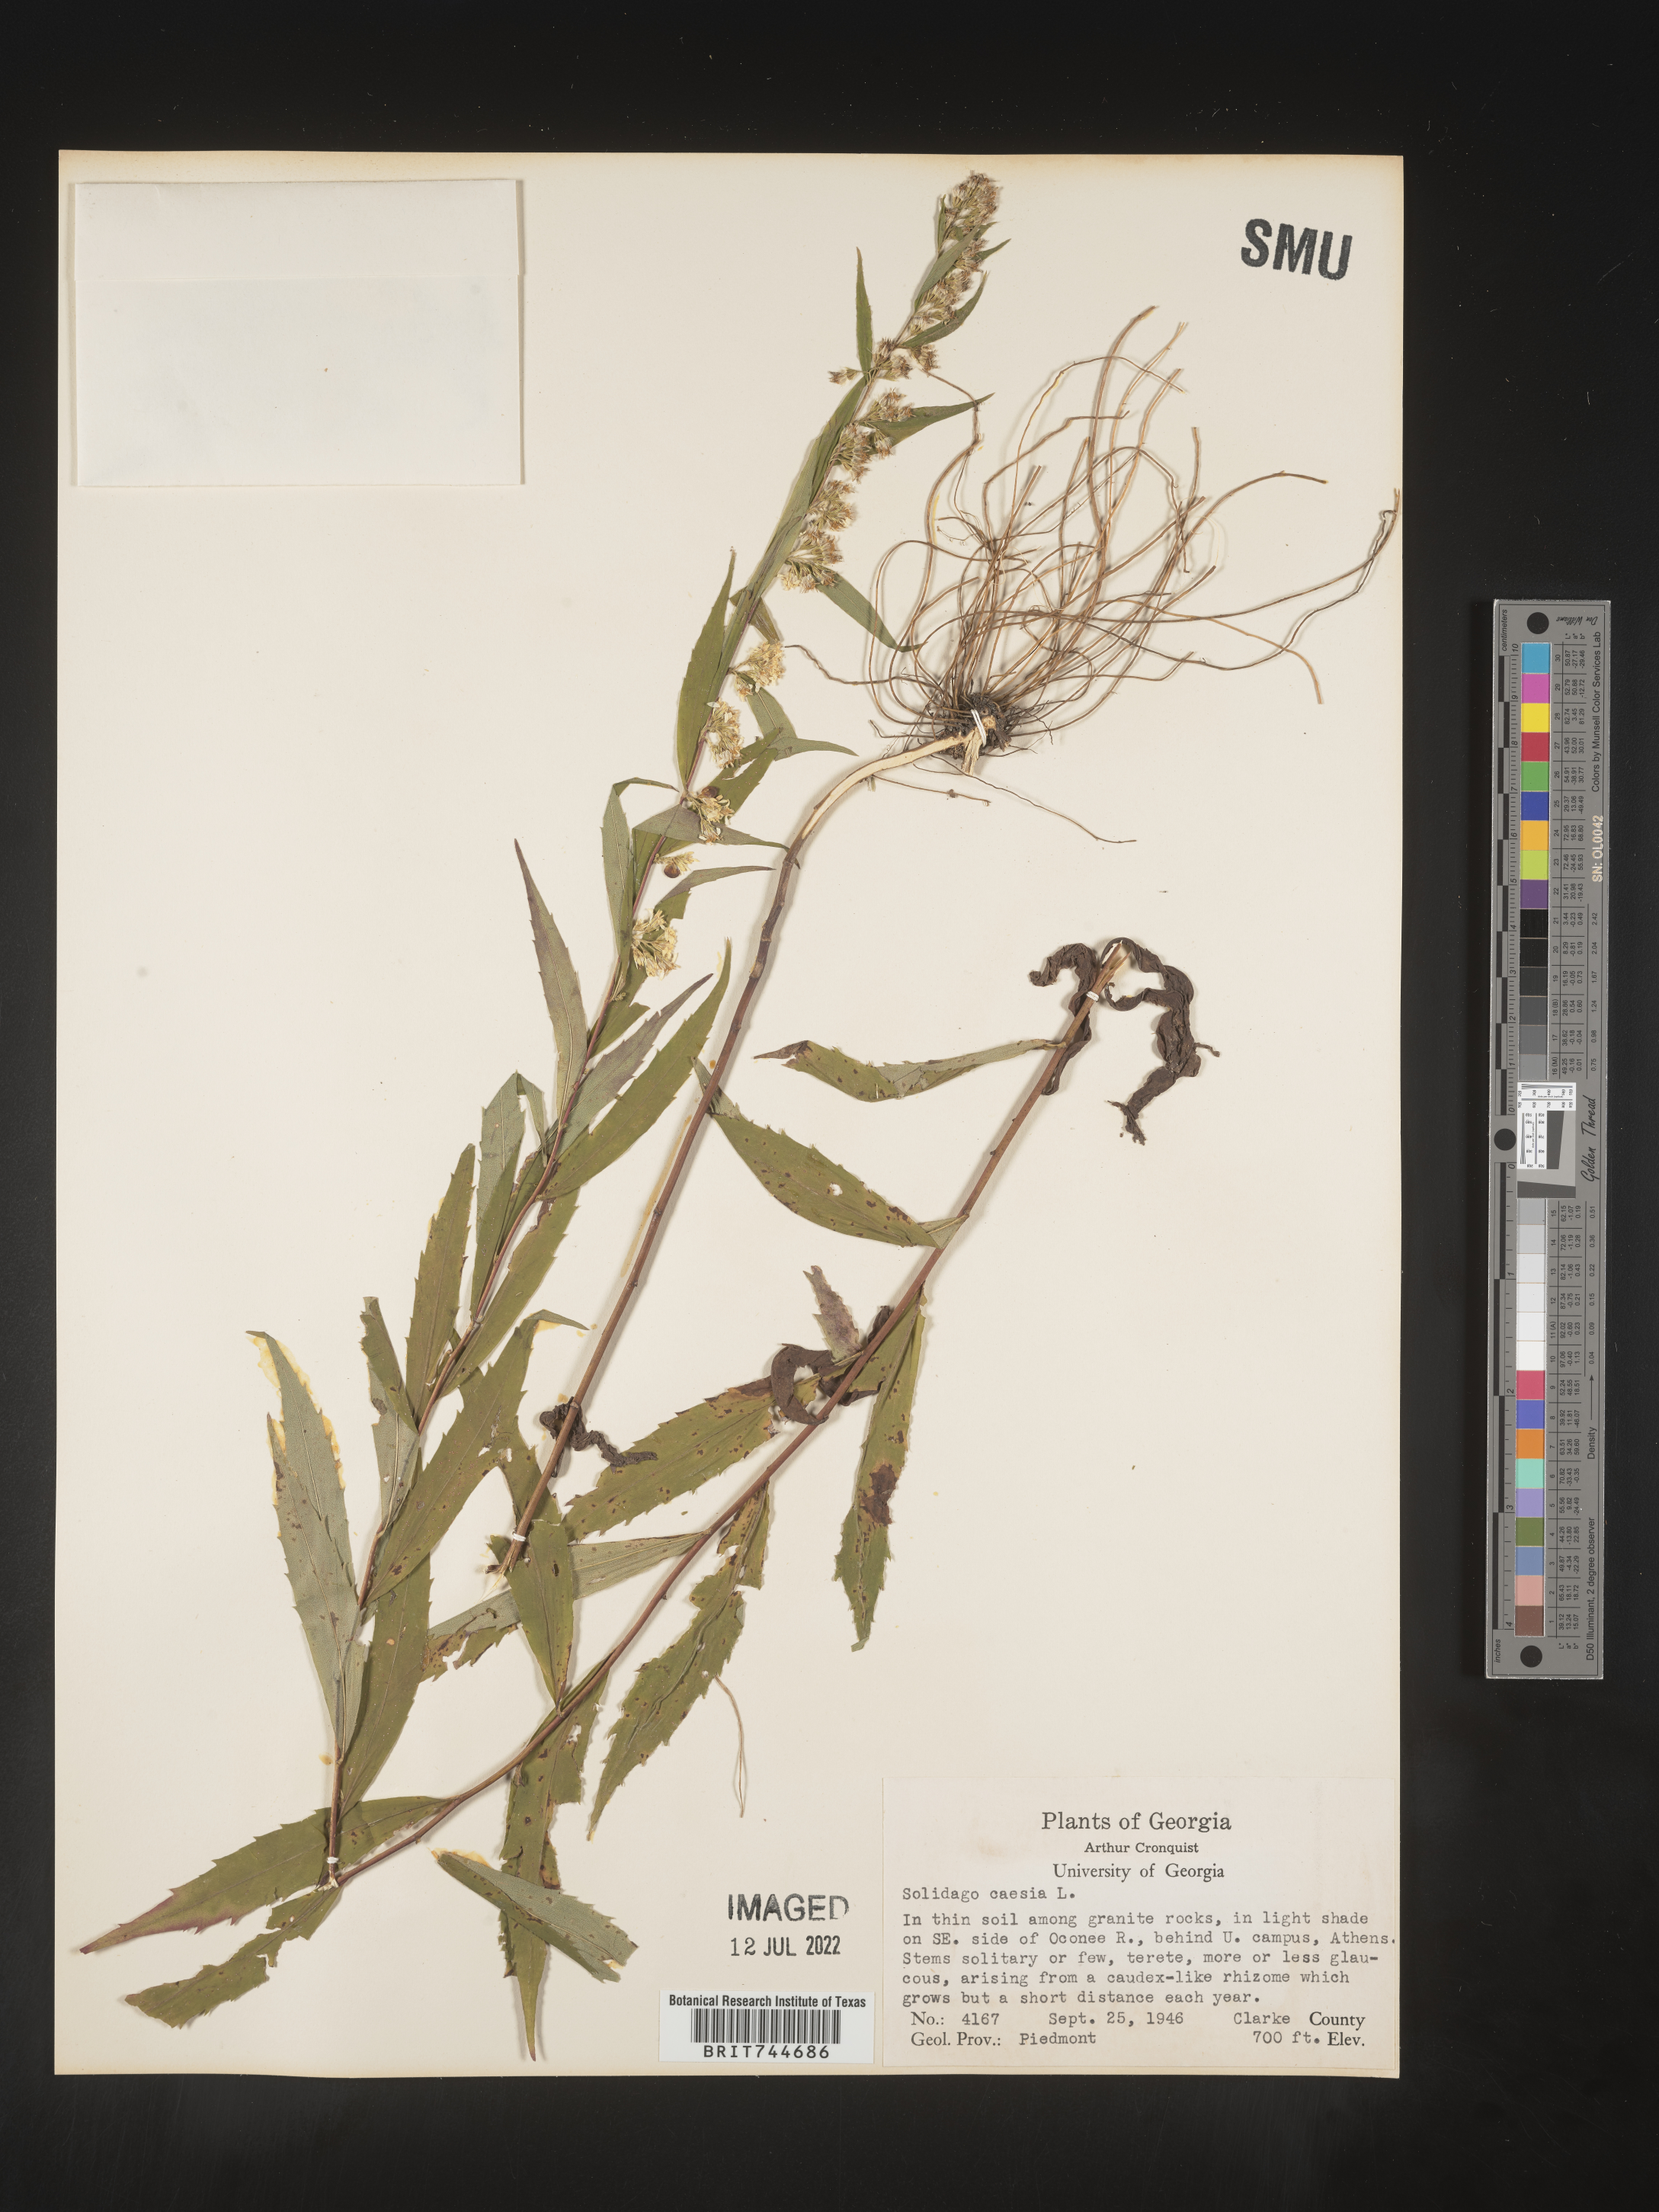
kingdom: Plantae
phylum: Tracheophyta
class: Magnoliopsida
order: Asterales
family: Asteraceae
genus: Solidago
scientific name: Solidago caesia
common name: Woodland goldenrod
